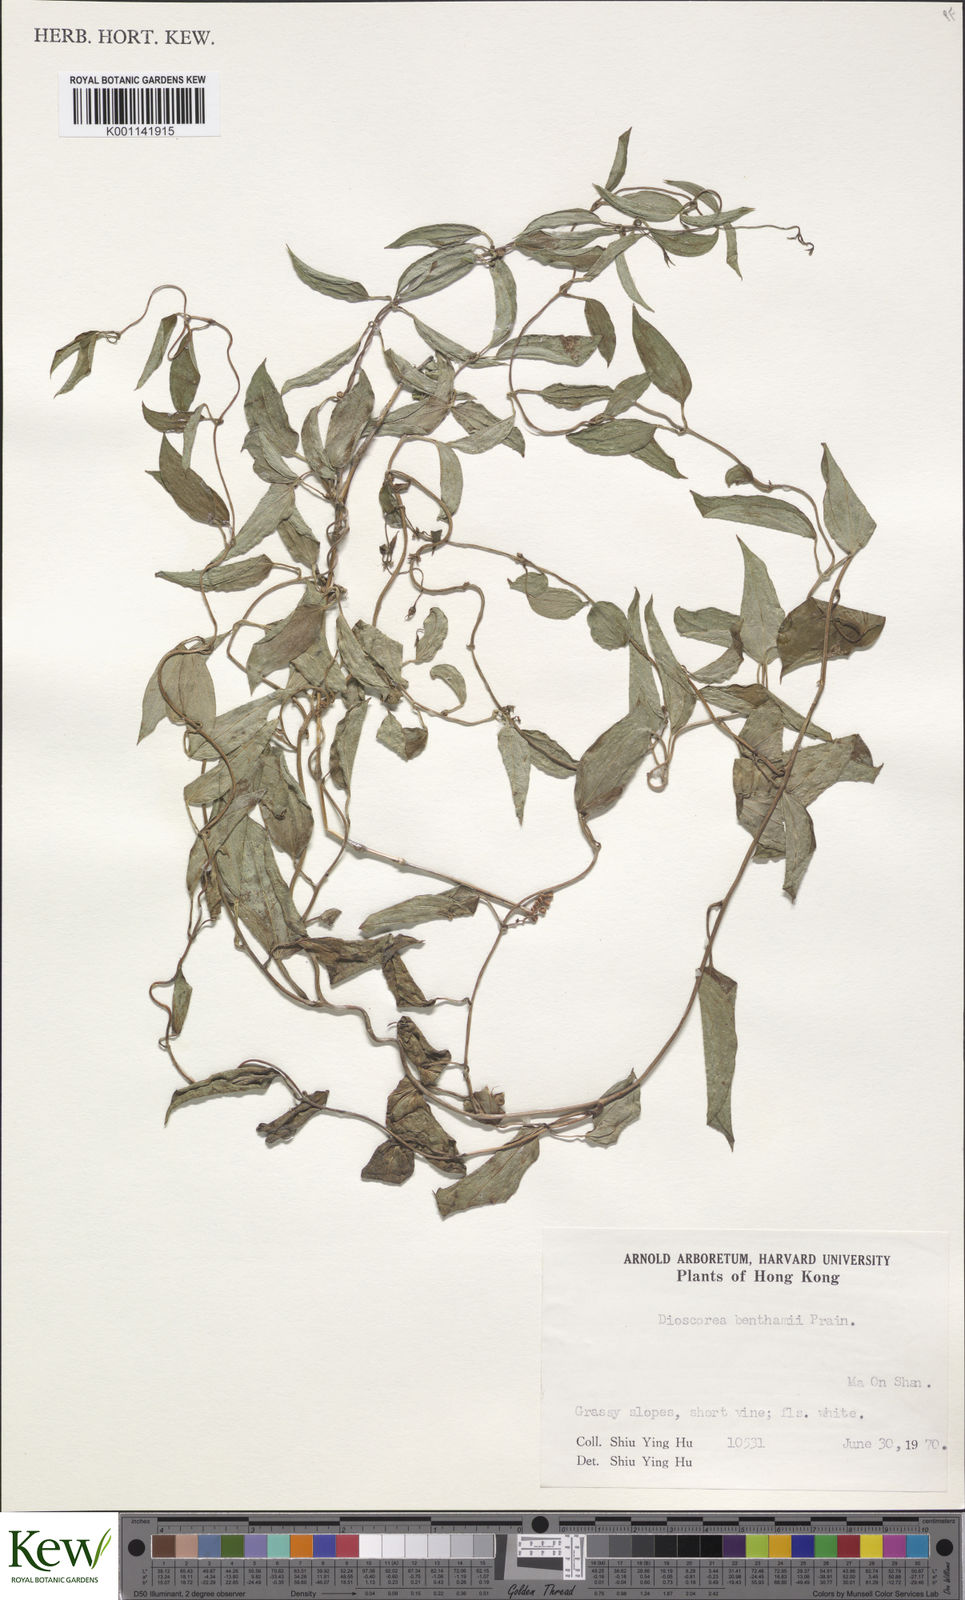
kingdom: Plantae
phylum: Tracheophyta
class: Liliopsida
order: Dioscoreales
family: Dioscoreaceae
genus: Dioscorea
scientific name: Dioscorea
